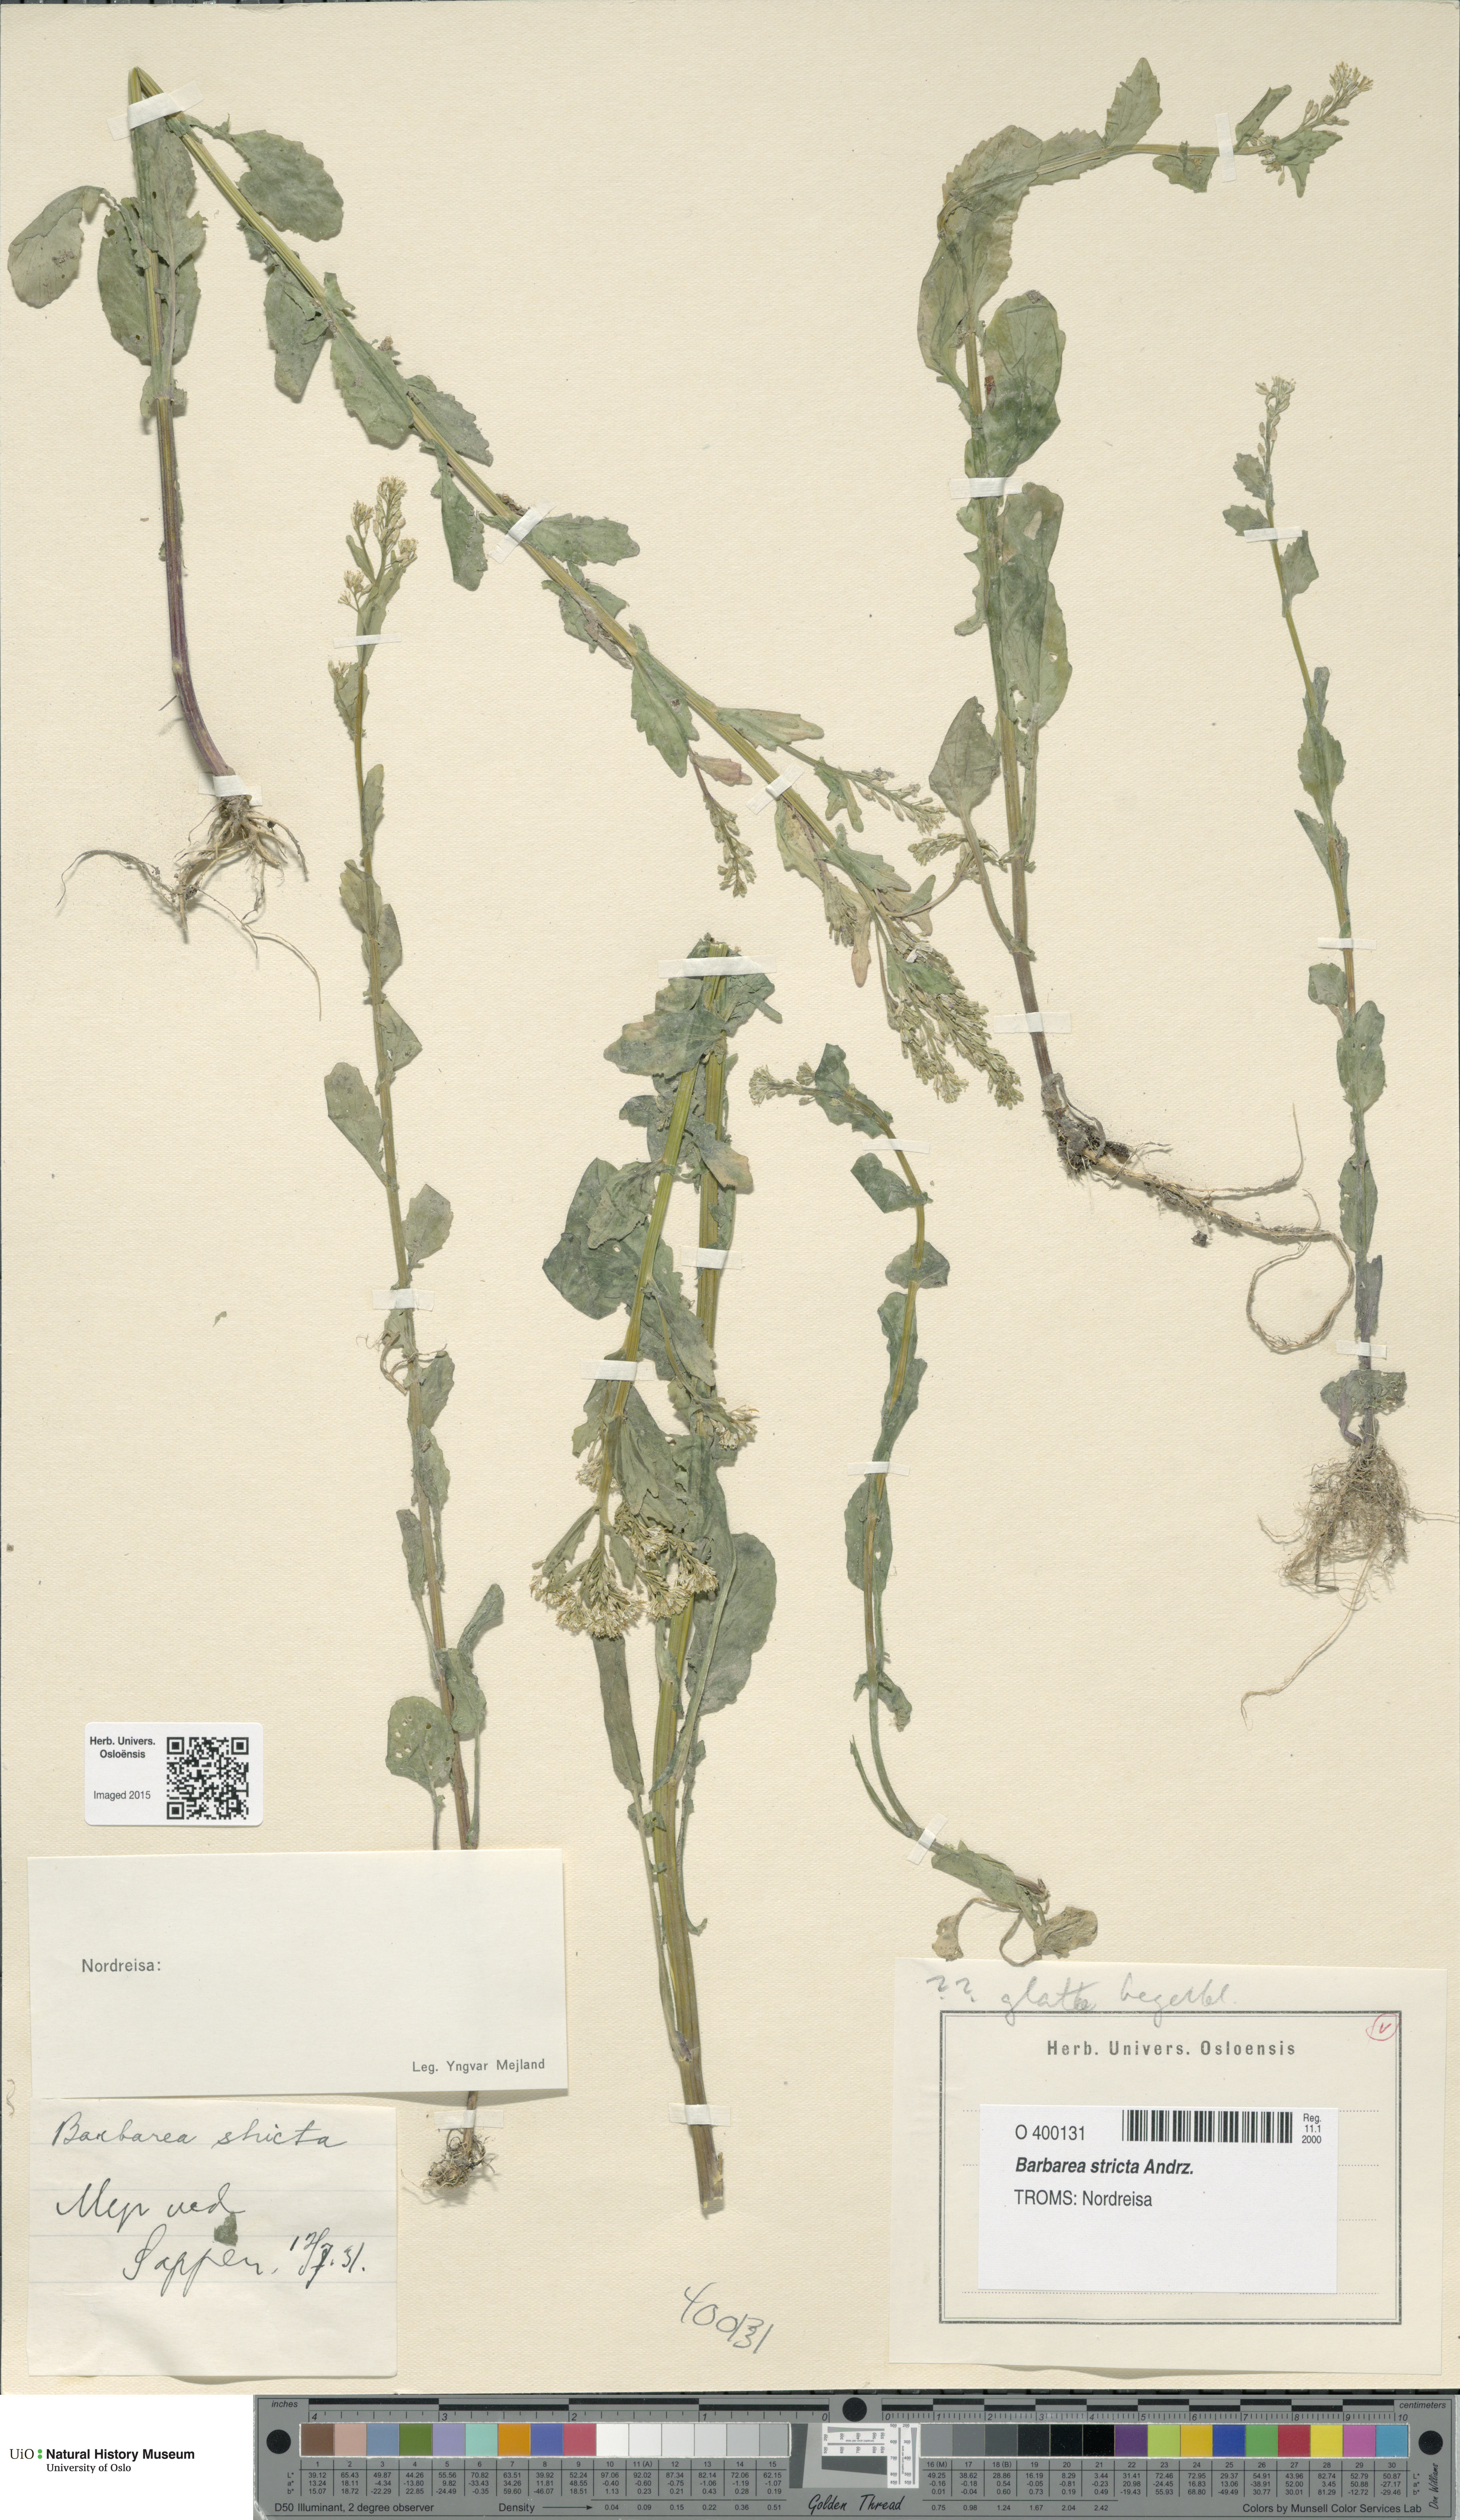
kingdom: Plantae
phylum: Tracheophyta
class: Magnoliopsida
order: Brassicales
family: Brassicaceae
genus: Barbarea
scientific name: Barbarea stricta
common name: Small-flowered winter-cress
